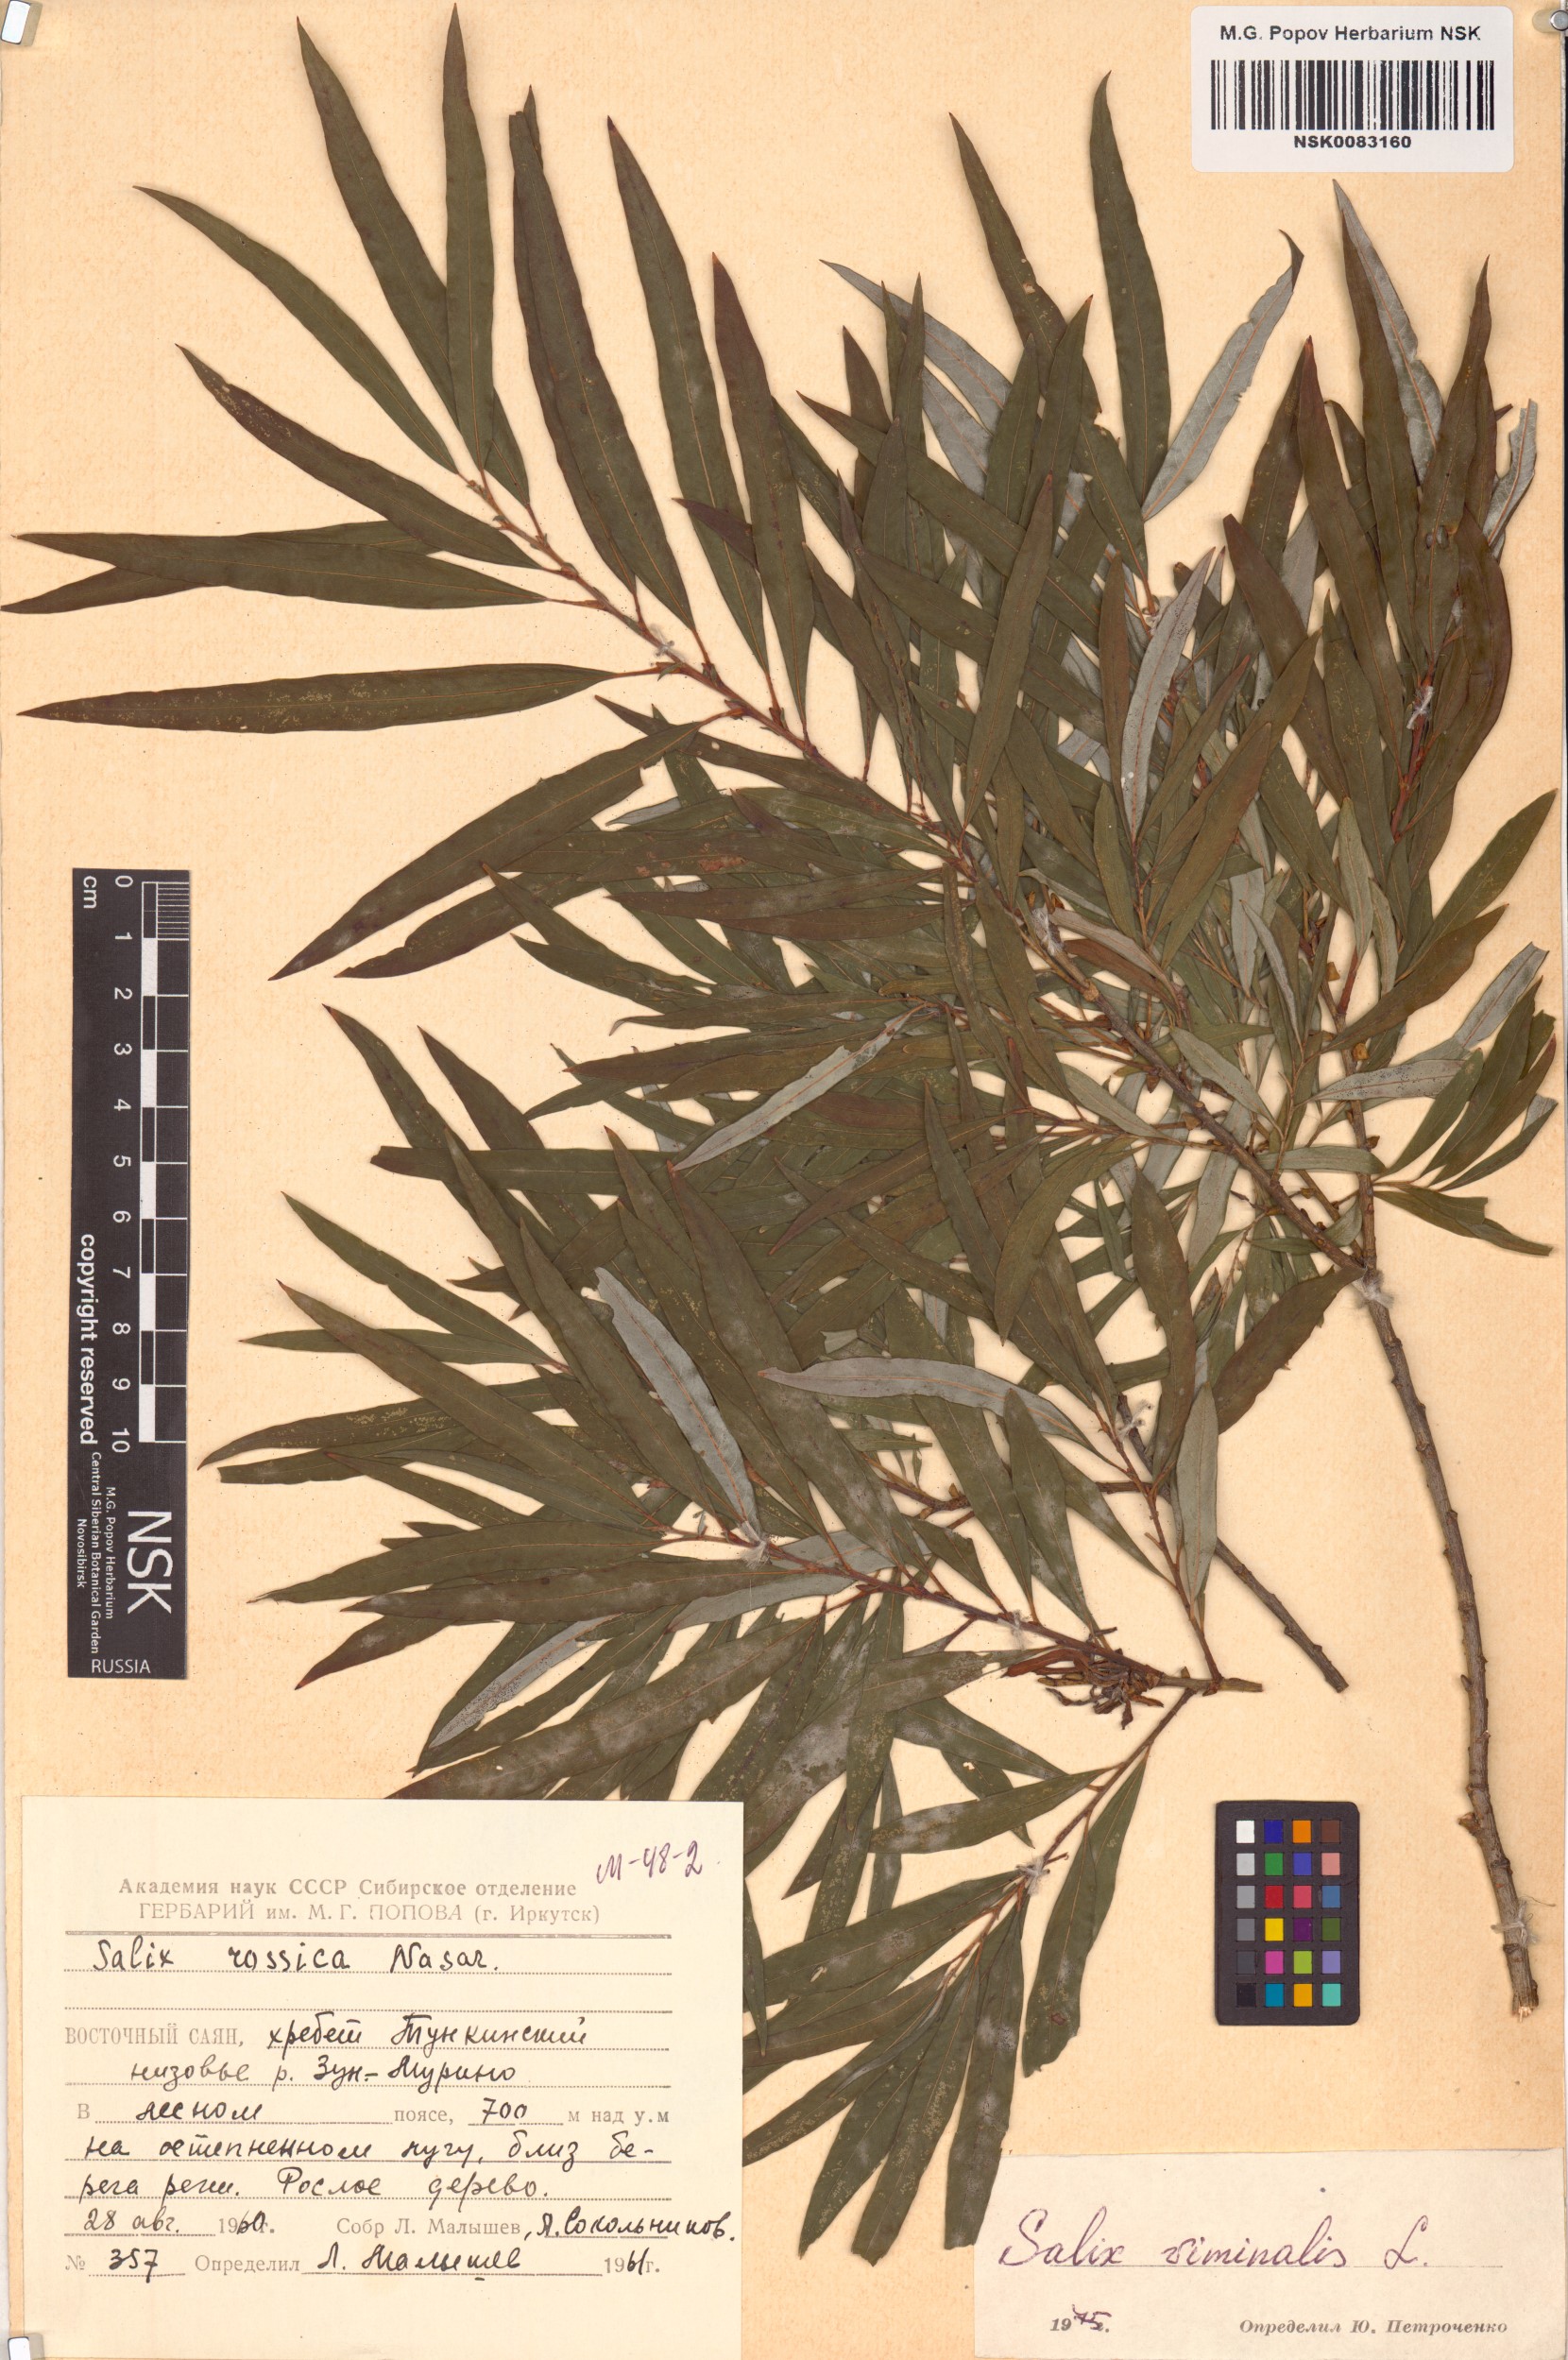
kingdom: Plantae
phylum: Tracheophyta
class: Magnoliopsida
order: Malpighiales
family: Salicaceae
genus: Salix
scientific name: Salix viminalis
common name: Osier
